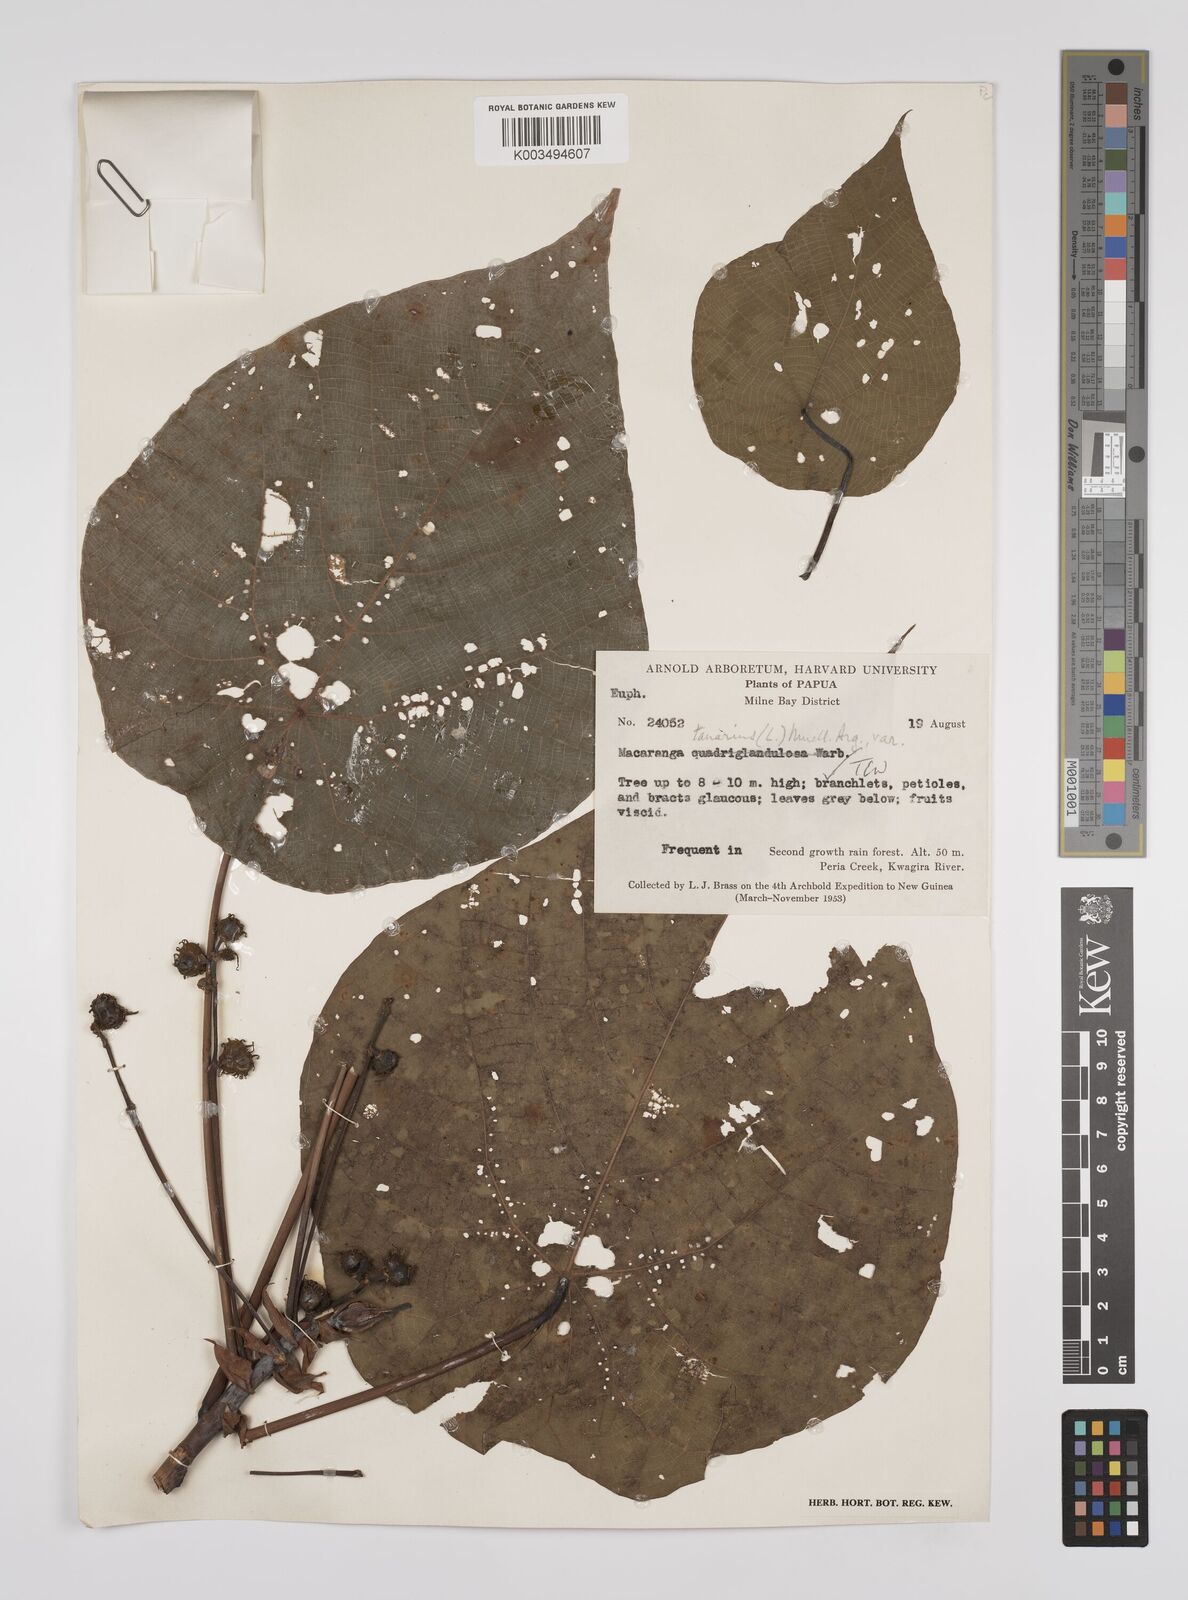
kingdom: Plantae
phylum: Tracheophyta
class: Magnoliopsida
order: Malpighiales
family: Euphorbiaceae
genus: Macaranga
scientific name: Macaranga tanarius
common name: Parasol leaf tree
